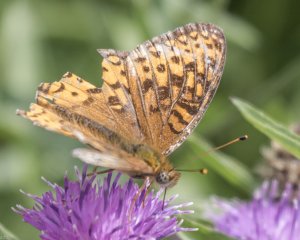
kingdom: Animalia
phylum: Arthropoda
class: Insecta
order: Lepidoptera
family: Nymphalidae
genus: Speyeria
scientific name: Speyeria atlantis
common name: Atlantis Fritillary
